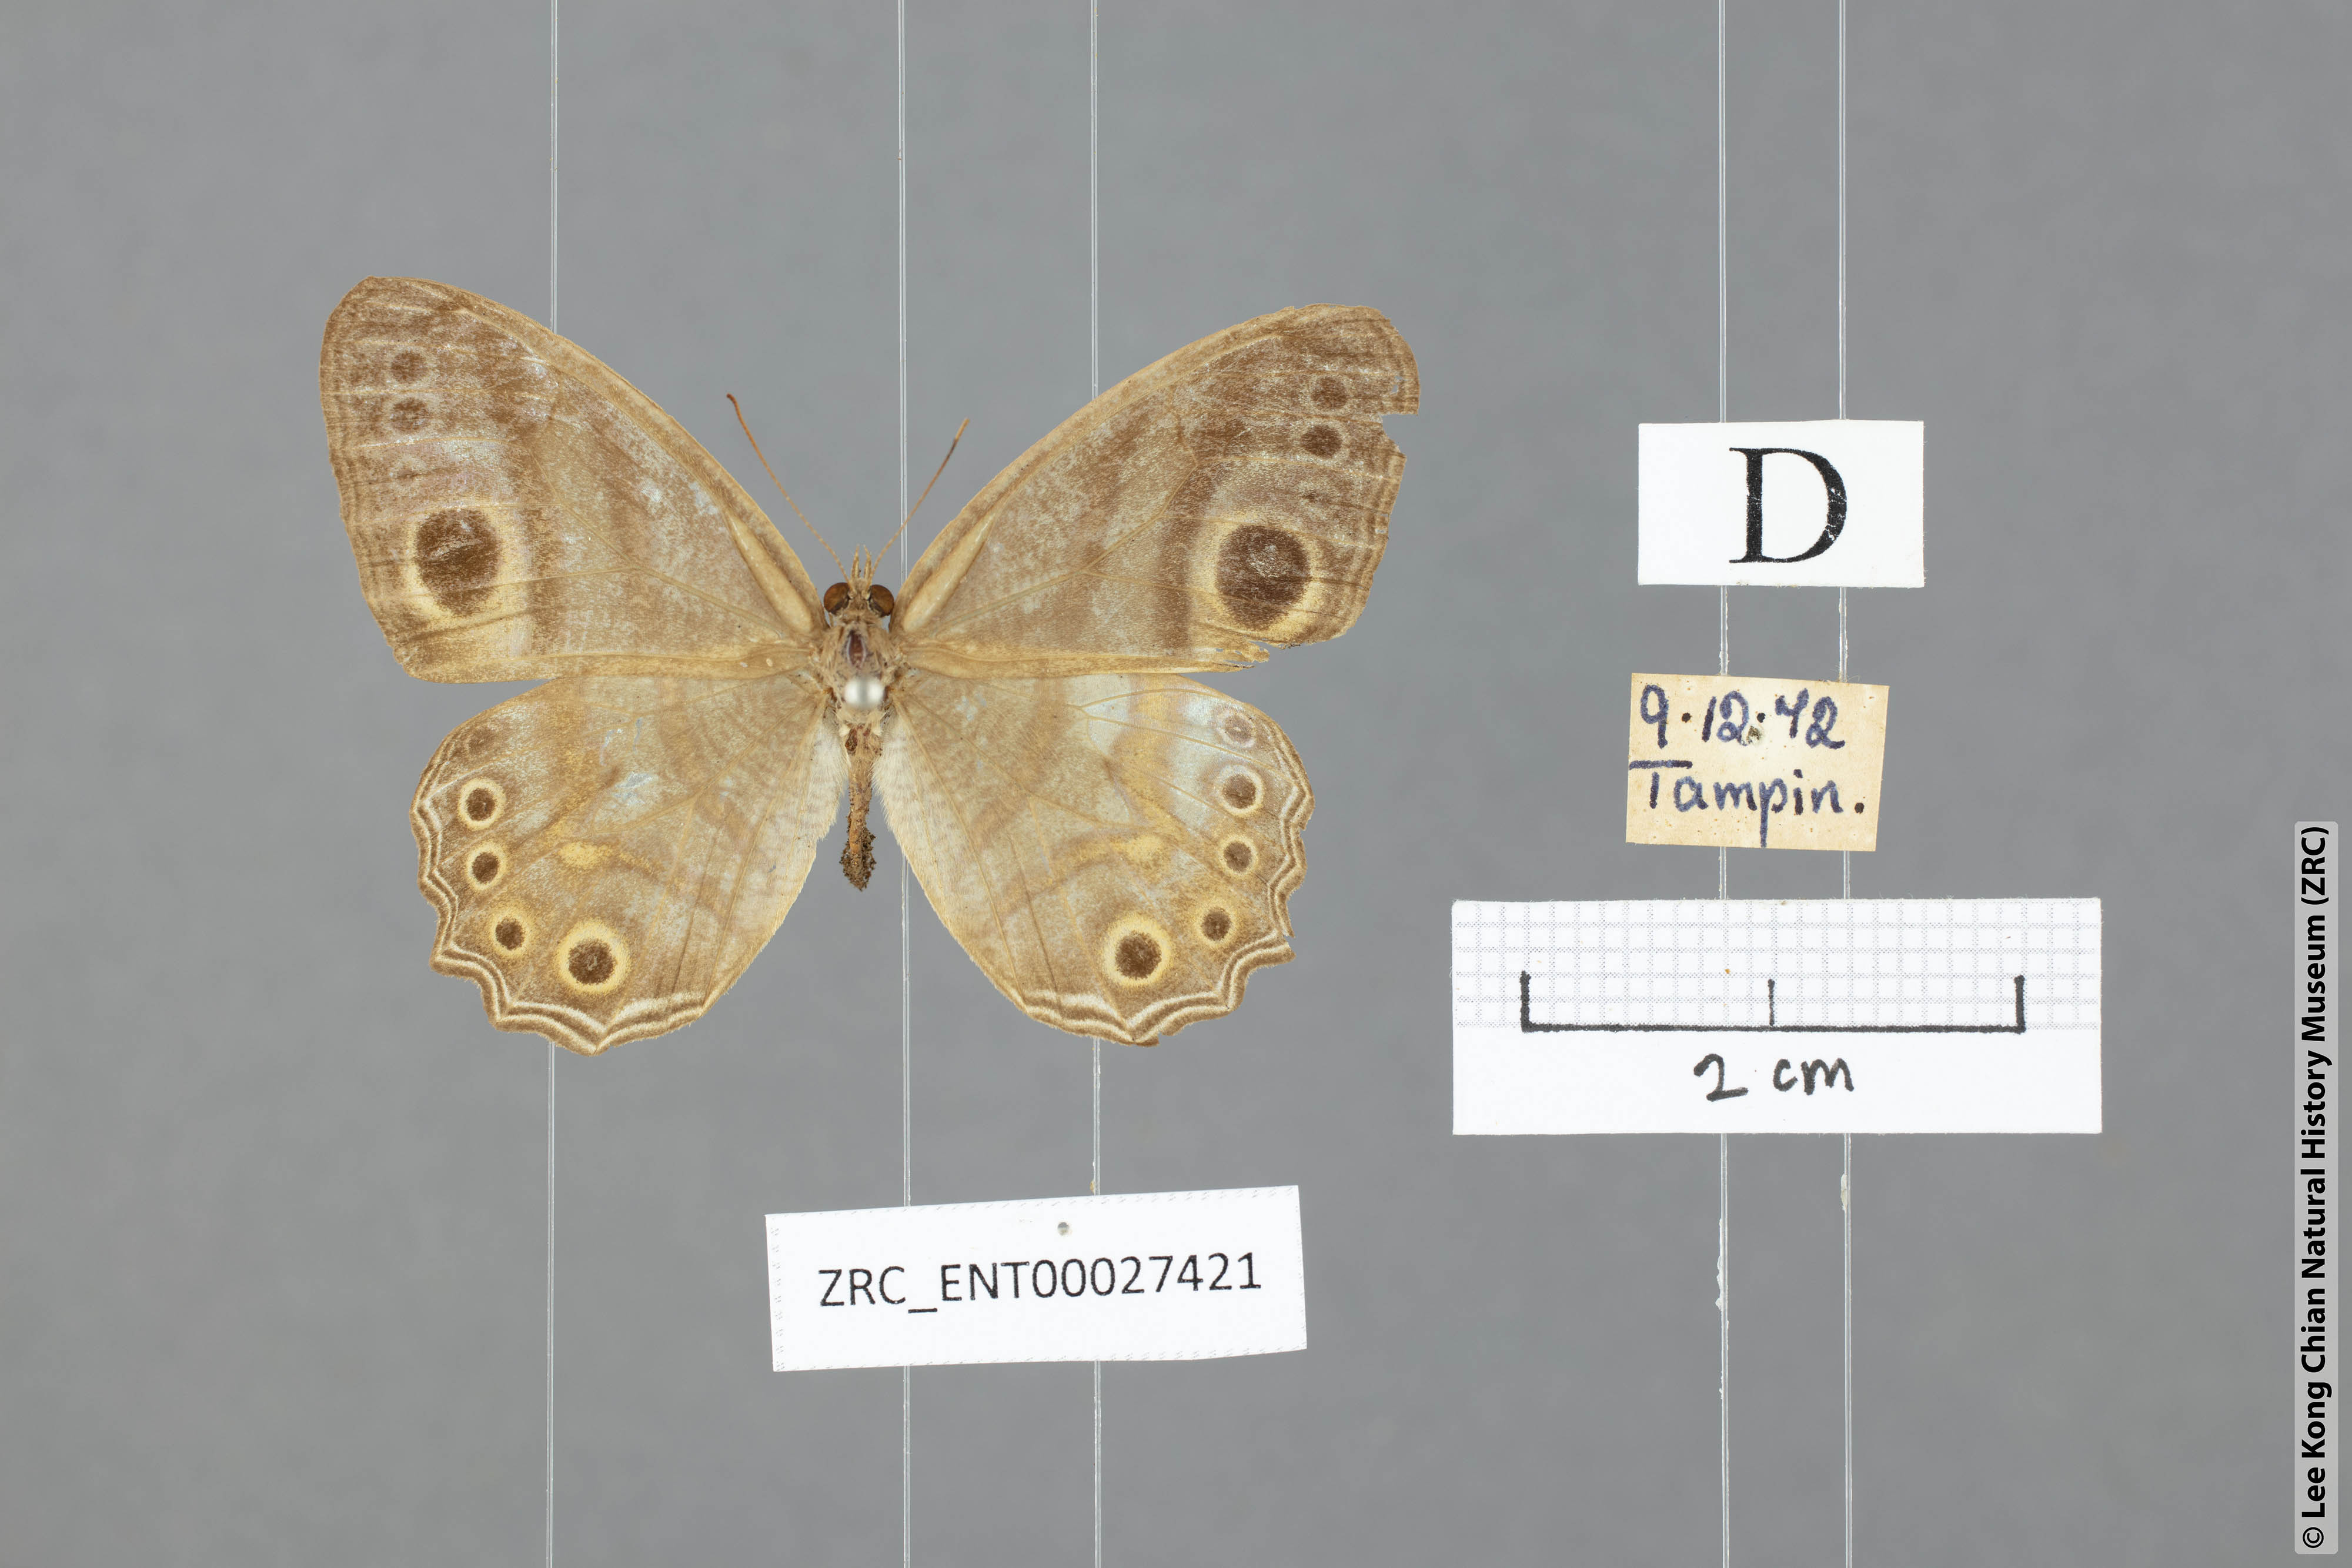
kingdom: Animalia
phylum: Arthropoda
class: Insecta
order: Lepidoptera
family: Nymphalidae
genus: Erites
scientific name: Erites argentina
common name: Eyed cyclops
